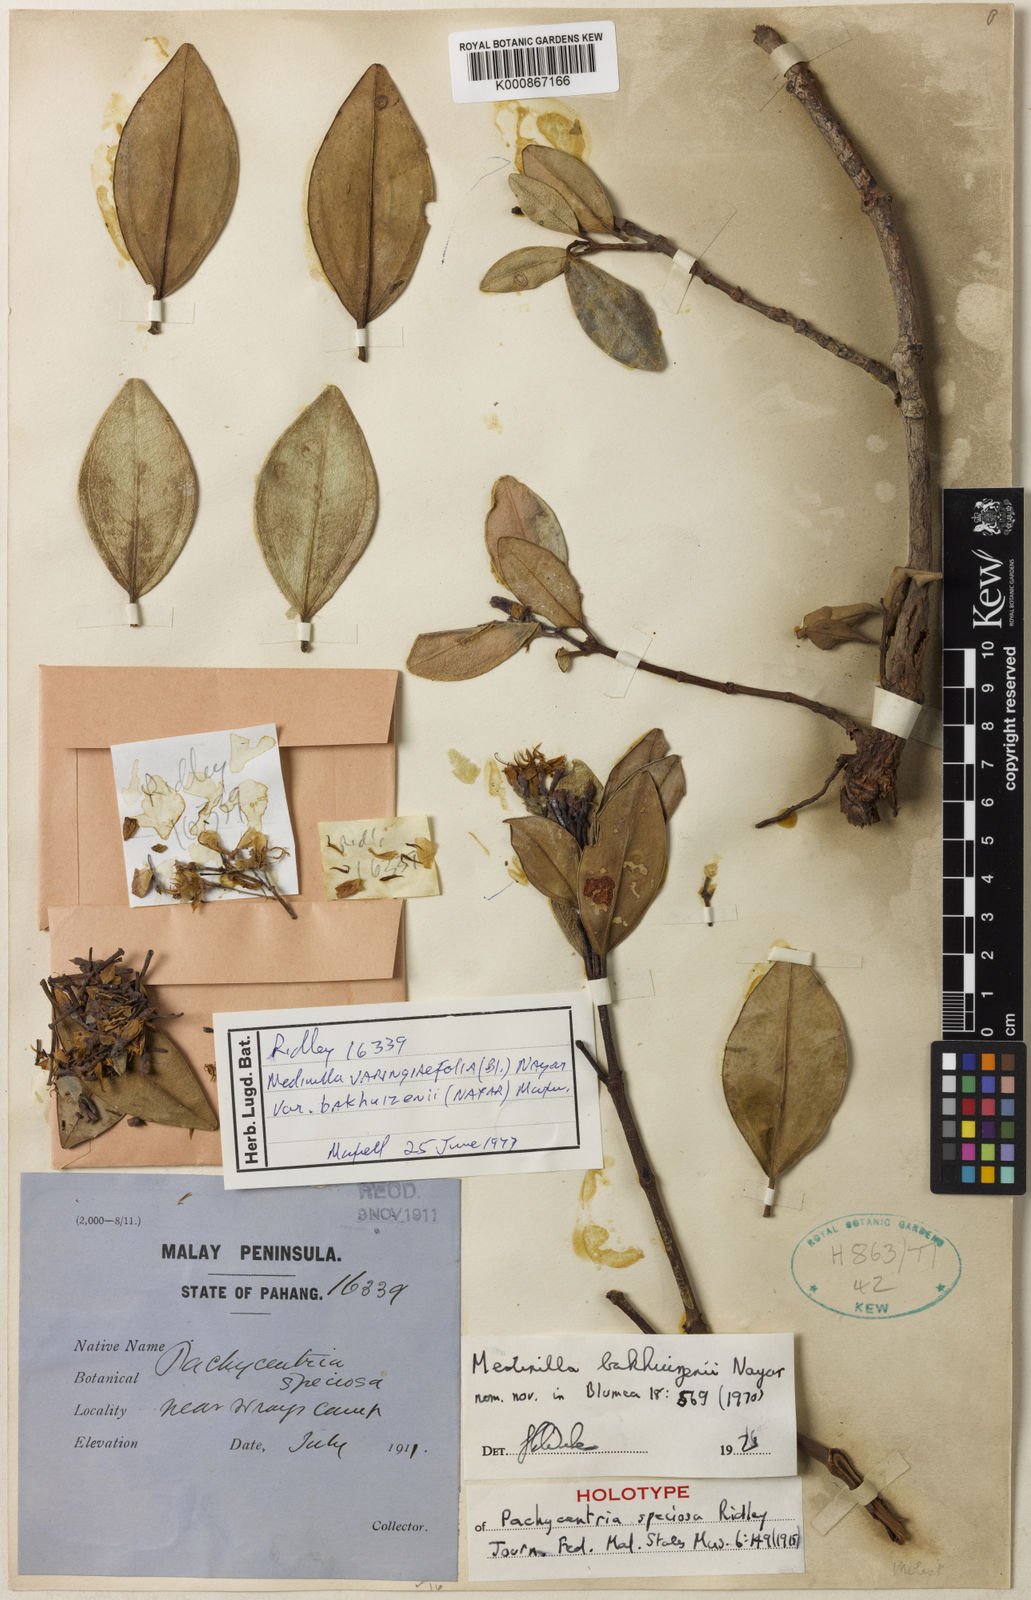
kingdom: Plantae
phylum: Tracheophyta
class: Magnoliopsida
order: Myrtales
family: Melastomataceae
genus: Pachycentria
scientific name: Pachycentria varingiaefolia
